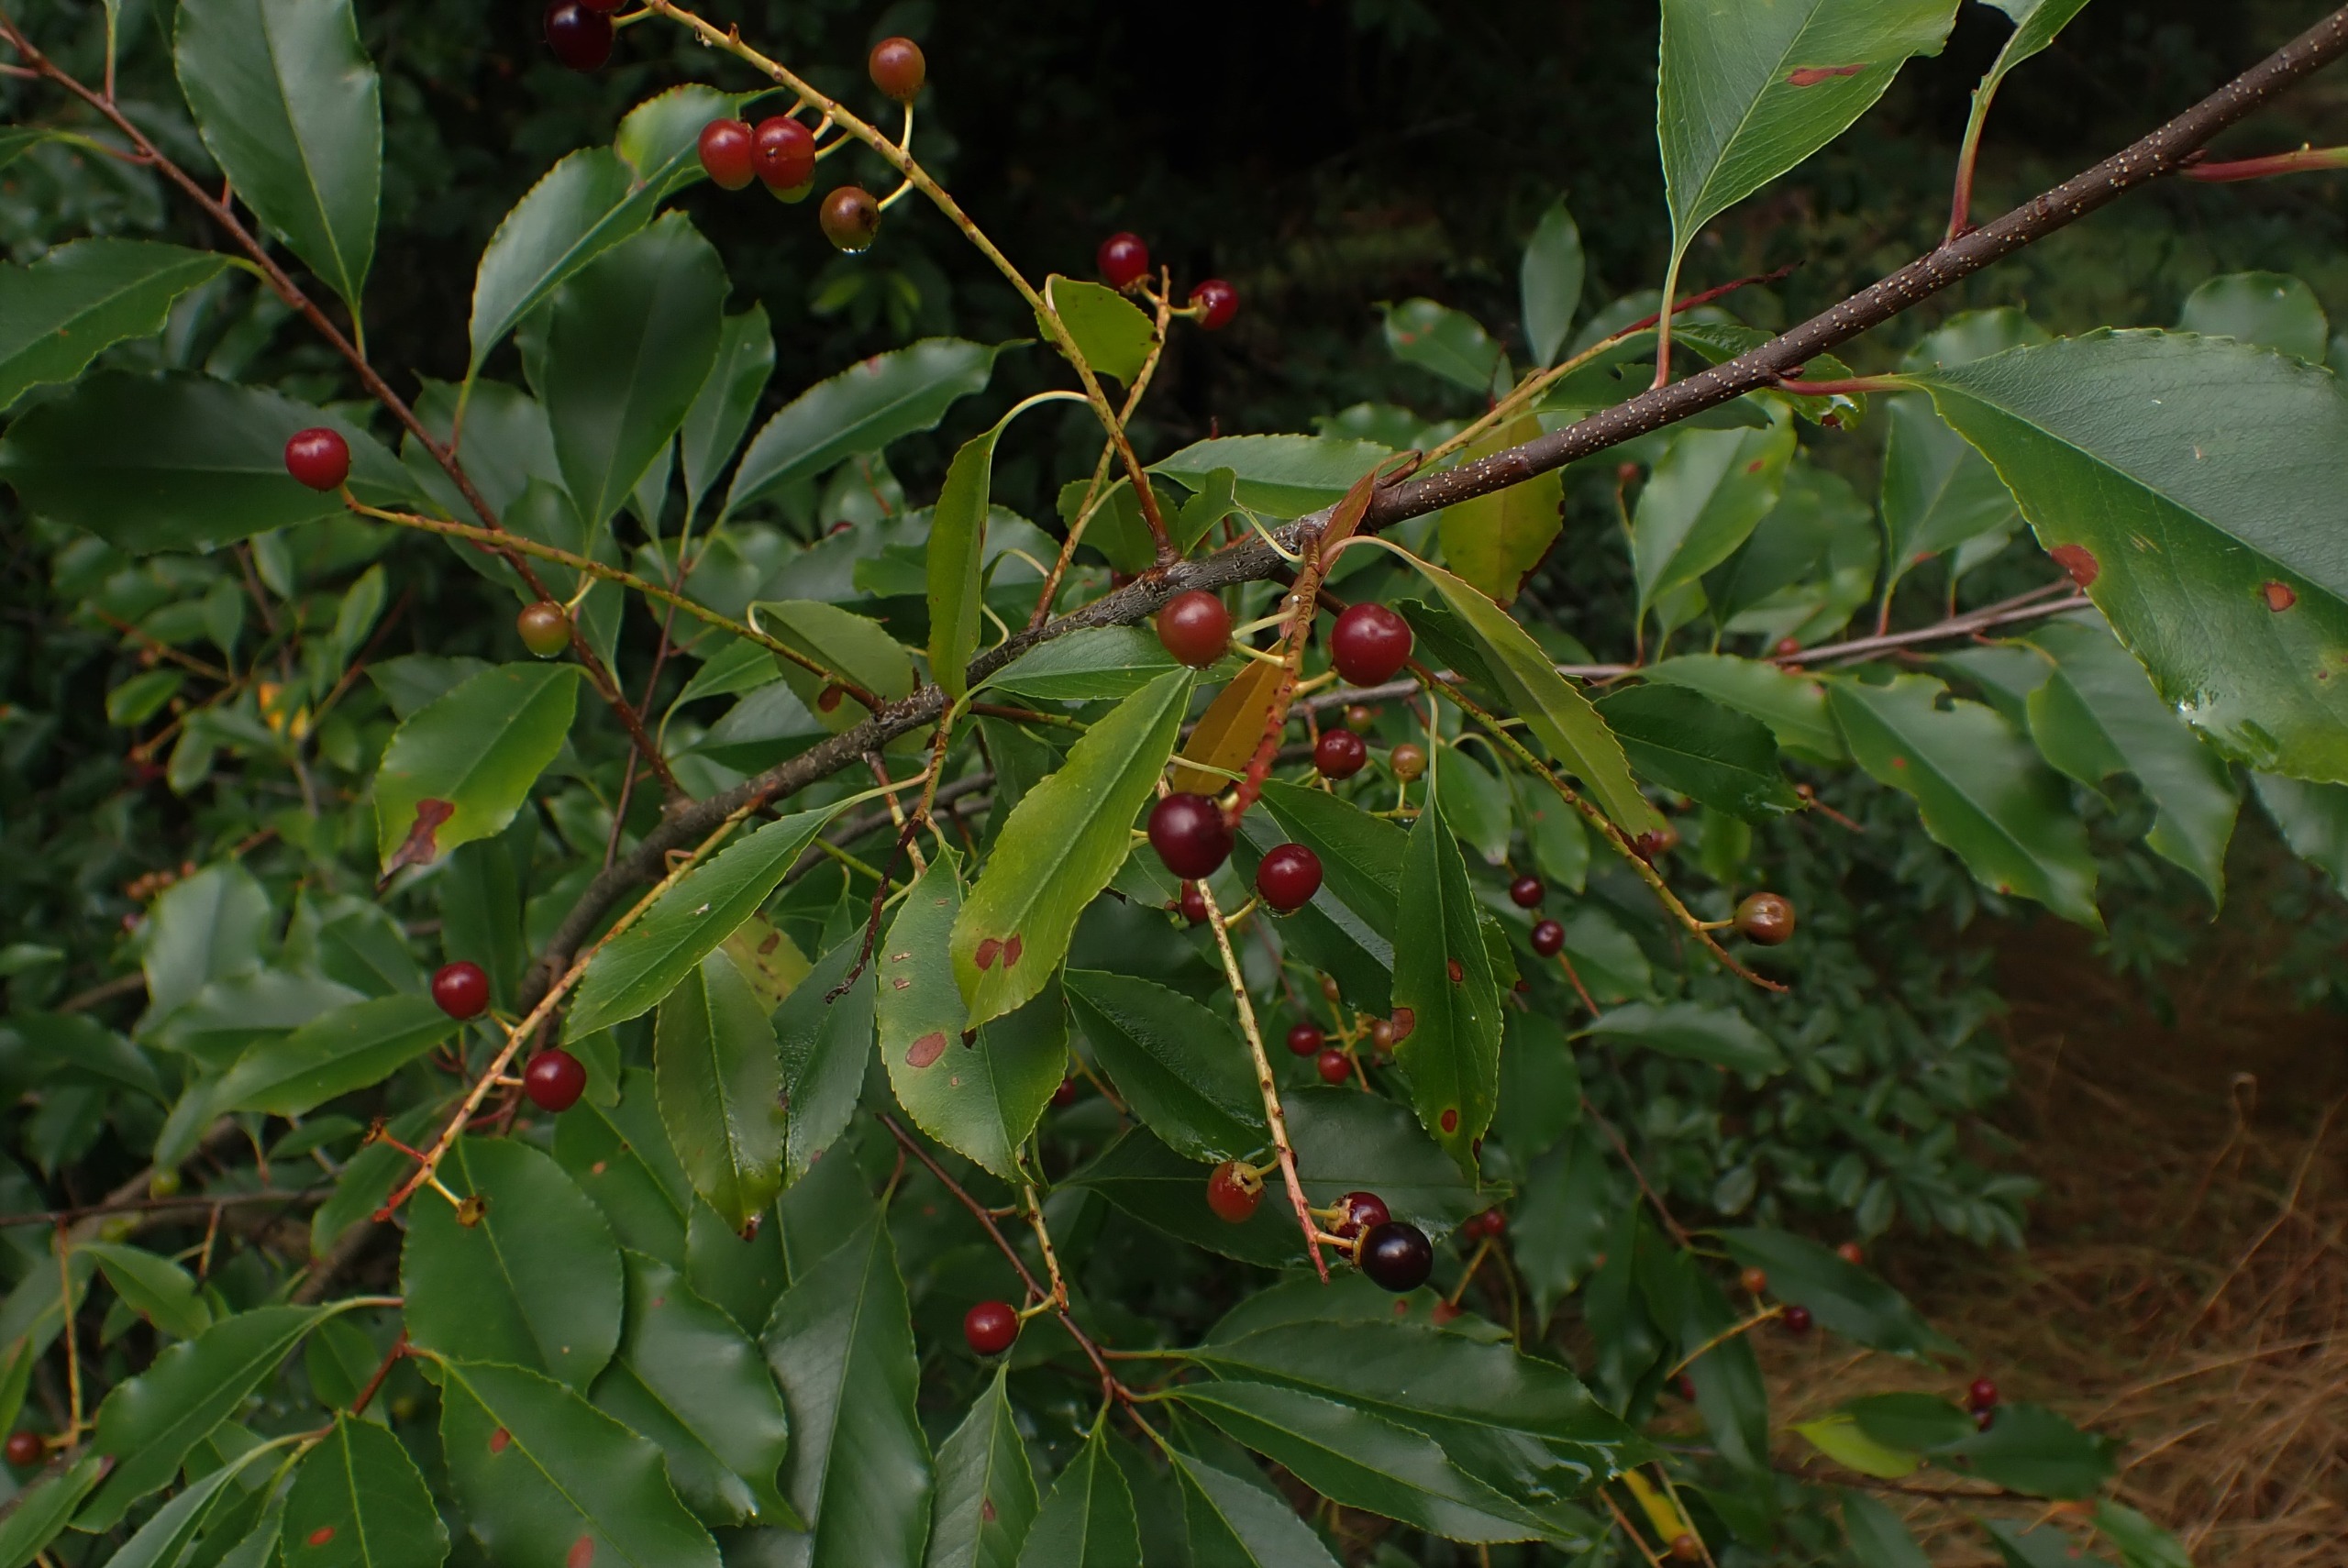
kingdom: Plantae
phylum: Tracheophyta
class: Magnoliopsida
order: Rosales
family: Rosaceae
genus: Prunus
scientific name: Prunus serotina
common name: Glansbladet hæg
